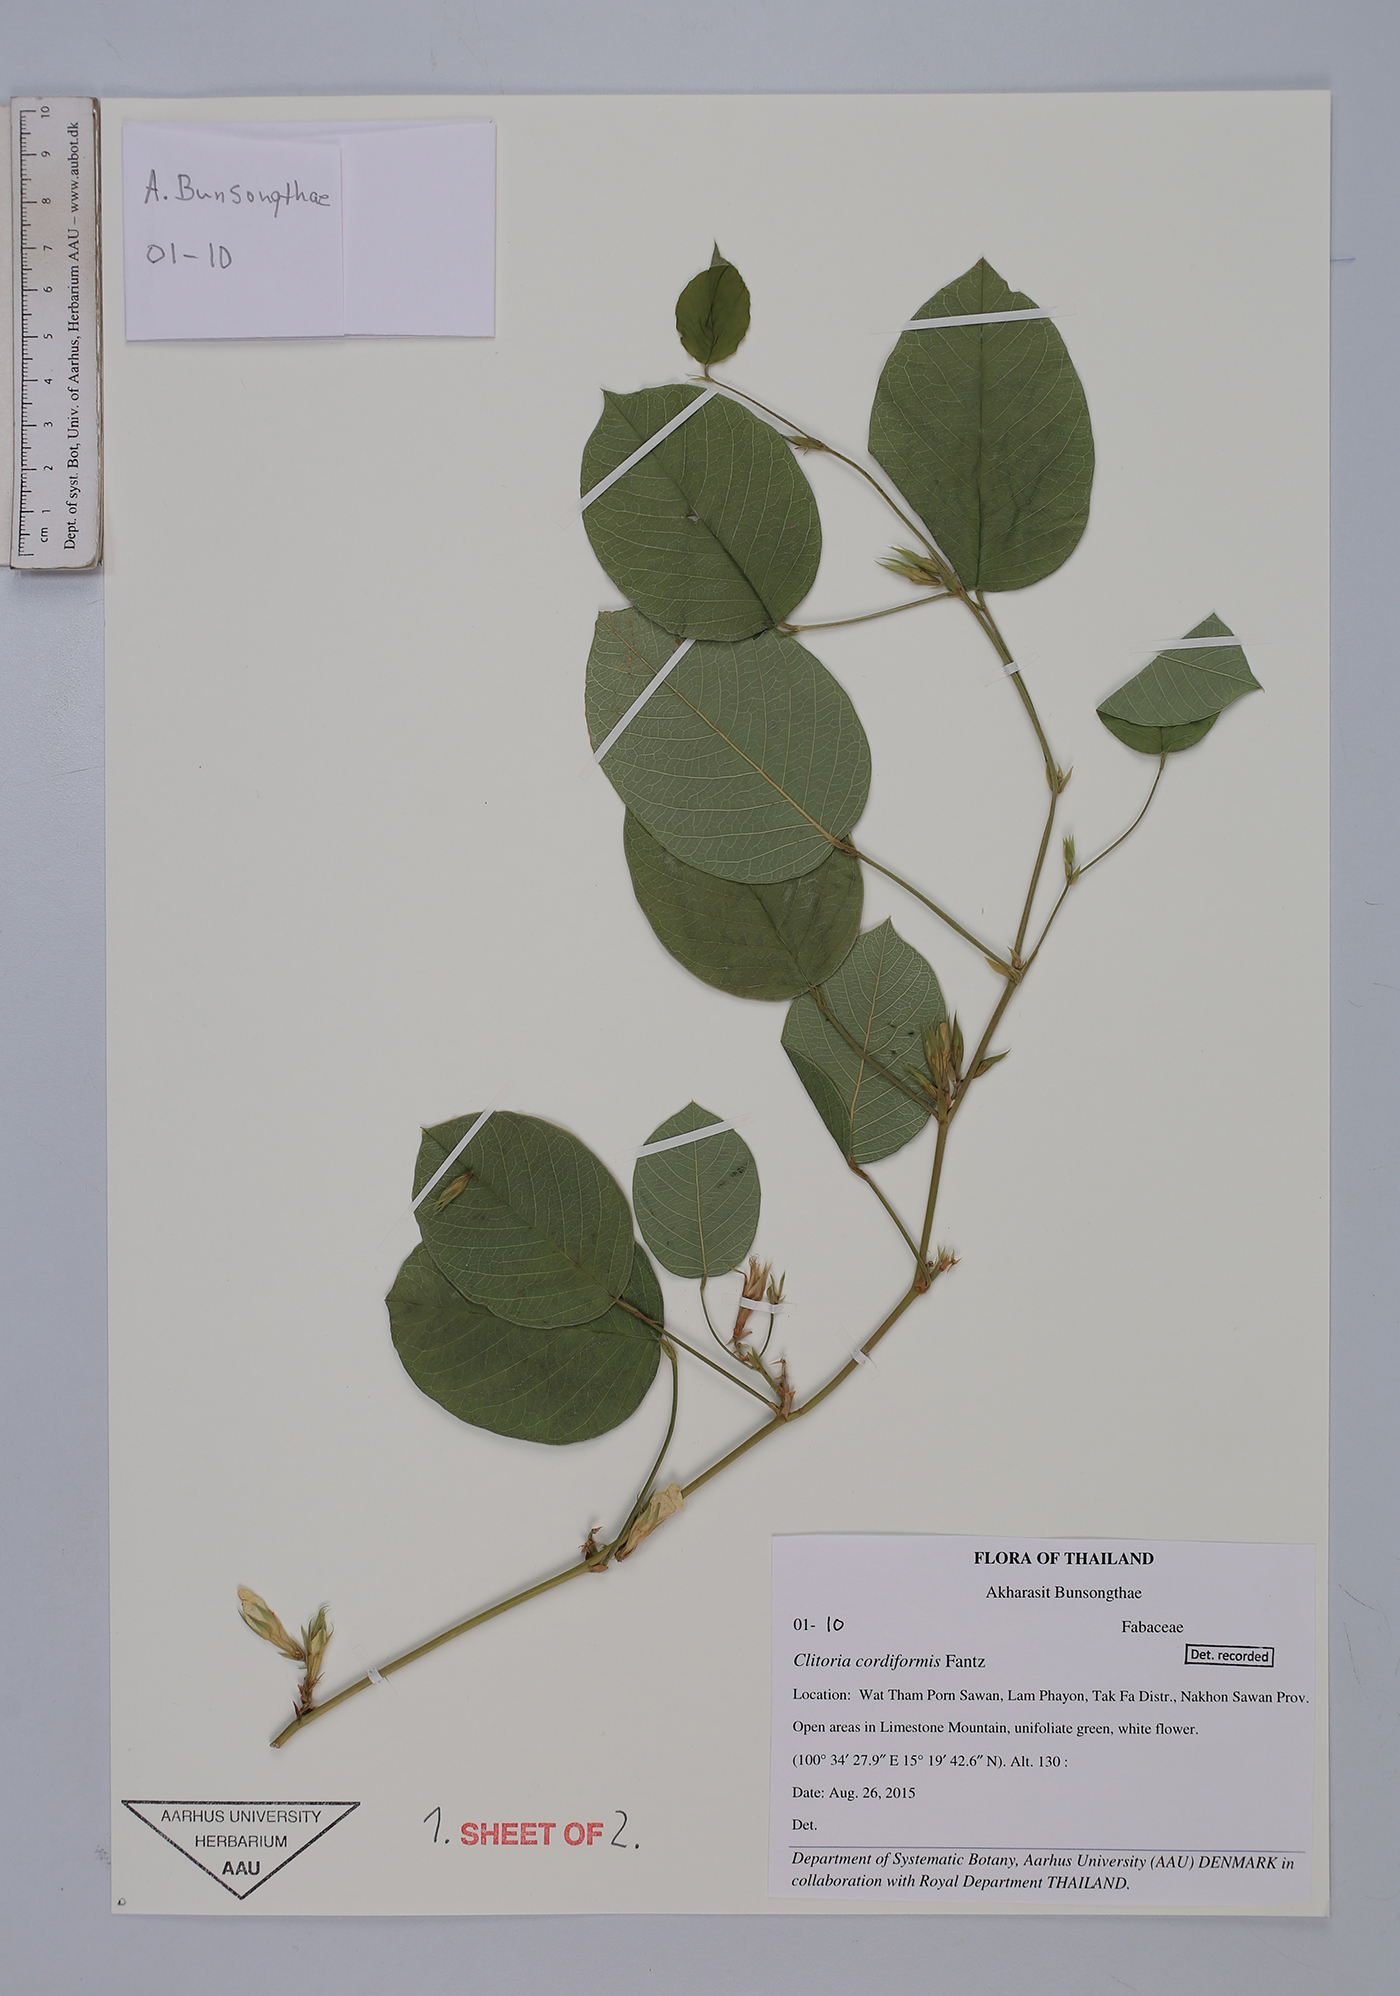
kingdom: Plantae
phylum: Tracheophyta
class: Magnoliopsida
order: Fabales
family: Fabaceae
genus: Clitoria
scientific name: Clitoria cordiformis
